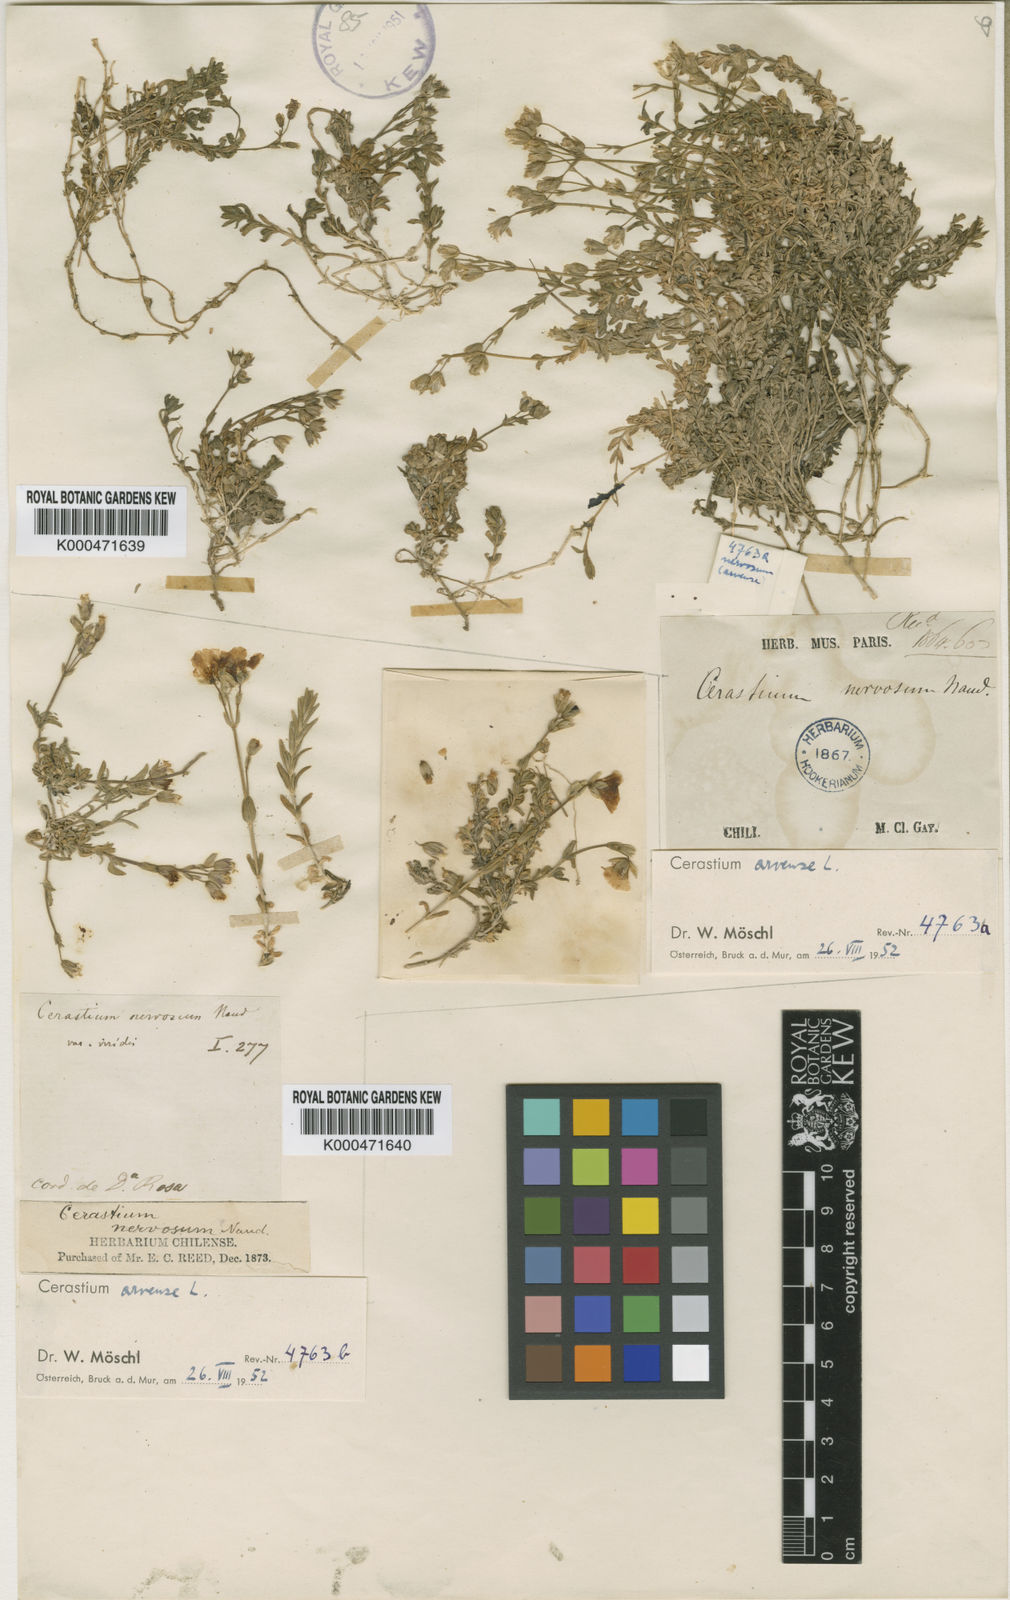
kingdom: Plantae
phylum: Tracheophyta
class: Magnoliopsida
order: Caryophyllales
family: Caryophyllaceae
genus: Cerastium
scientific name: Cerastium arvense
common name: Field mouse-ear
